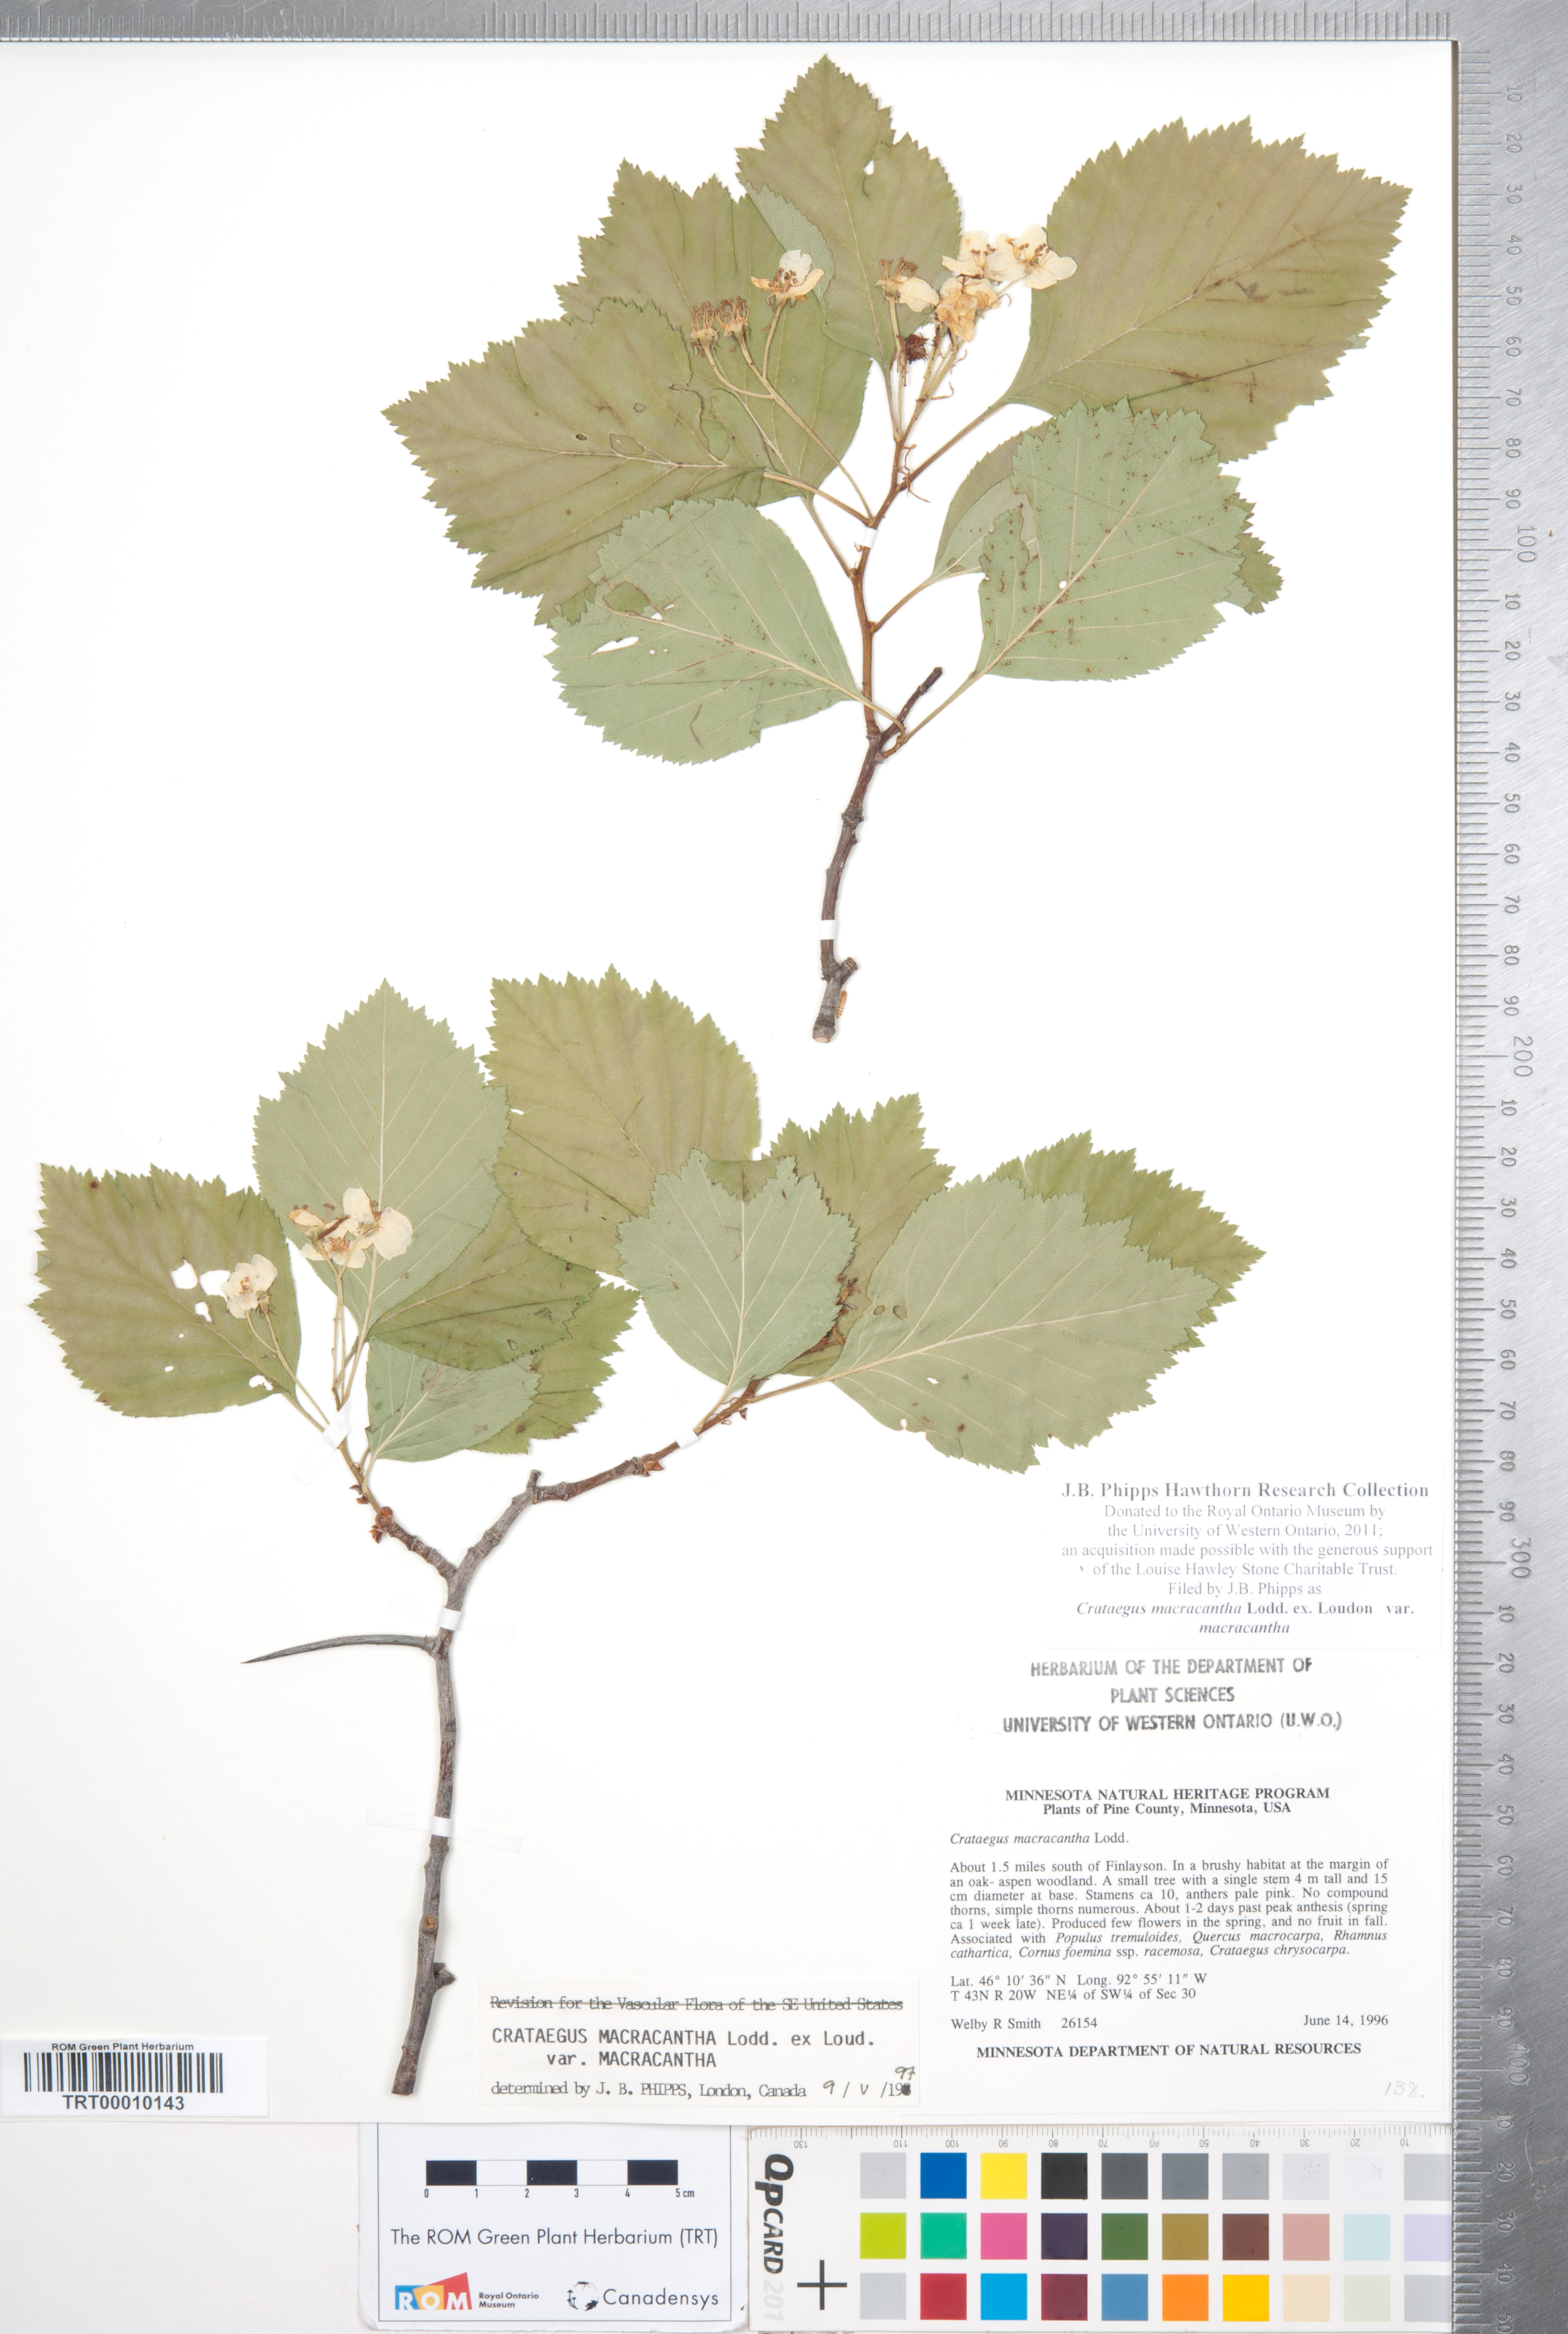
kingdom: Plantae
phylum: Tracheophyta
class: Magnoliopsida
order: Rosales
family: Rosaceae
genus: Crataegus
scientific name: Crataegus macracantha
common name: Large-thorn hawthorn
